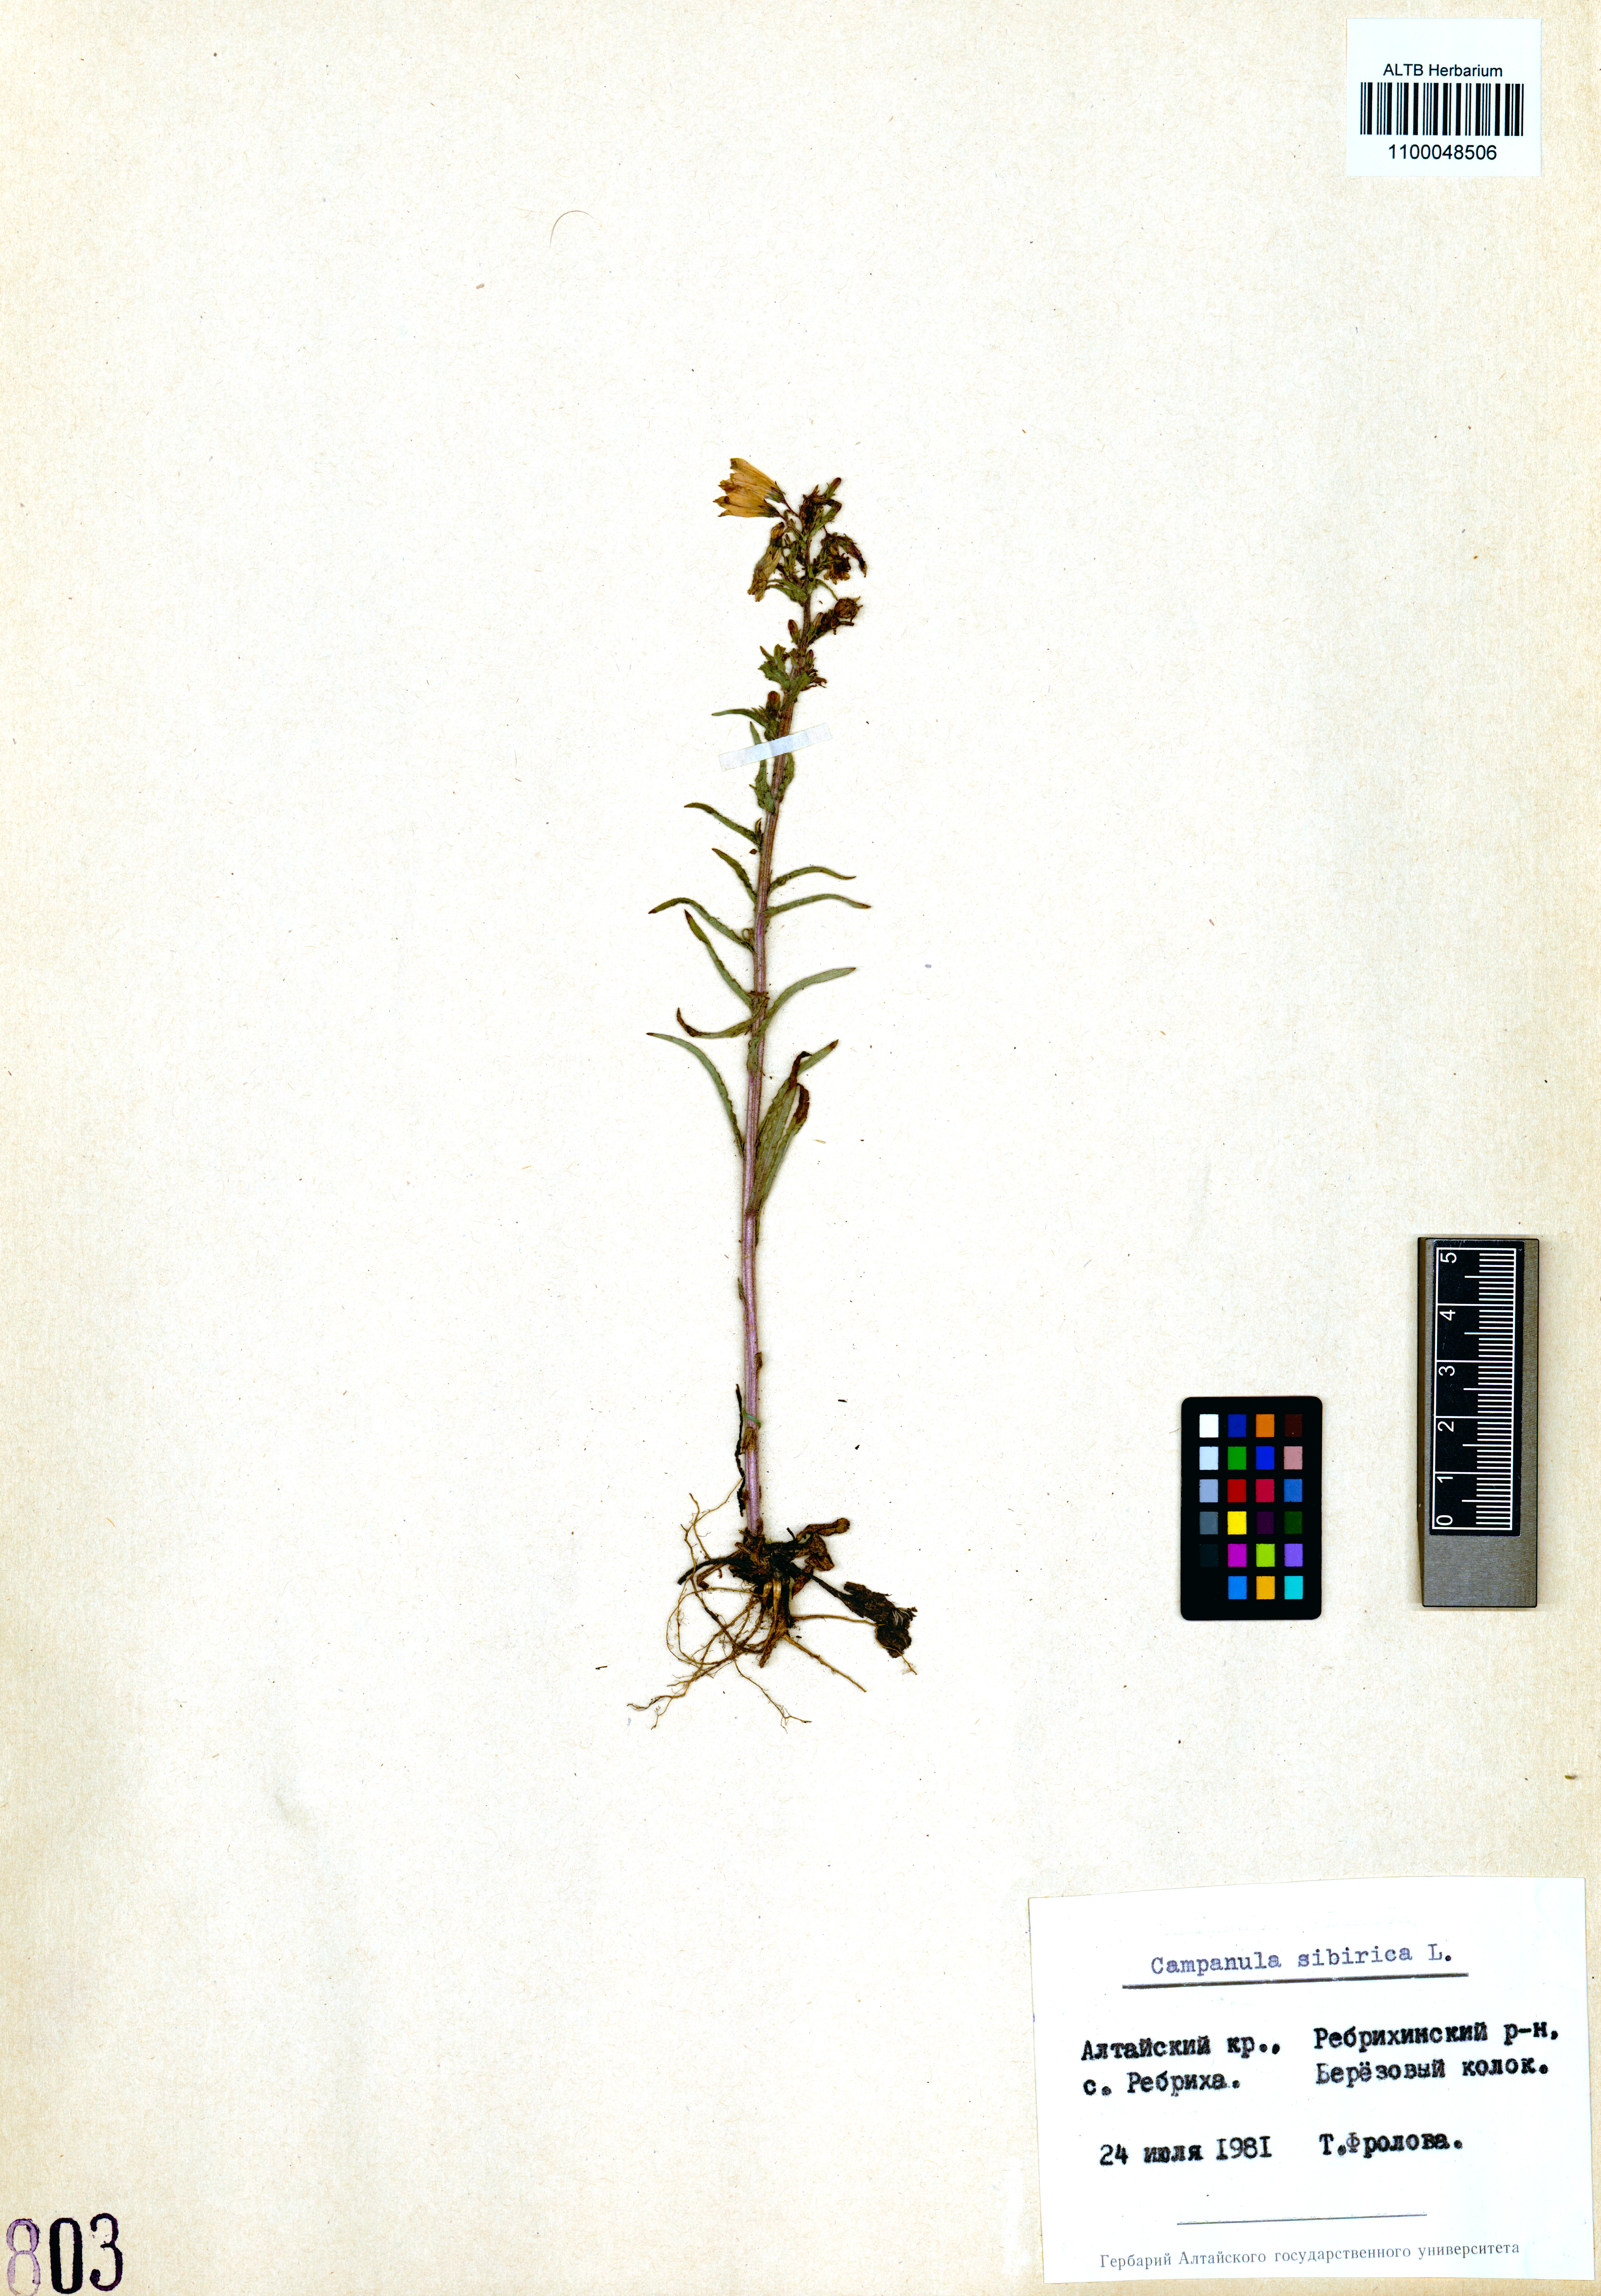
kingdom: Plantae
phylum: Tracheophyta
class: Magnoliopsida
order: Asterales
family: Campanulaceae
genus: Campanula
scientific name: Campanula sibirica
